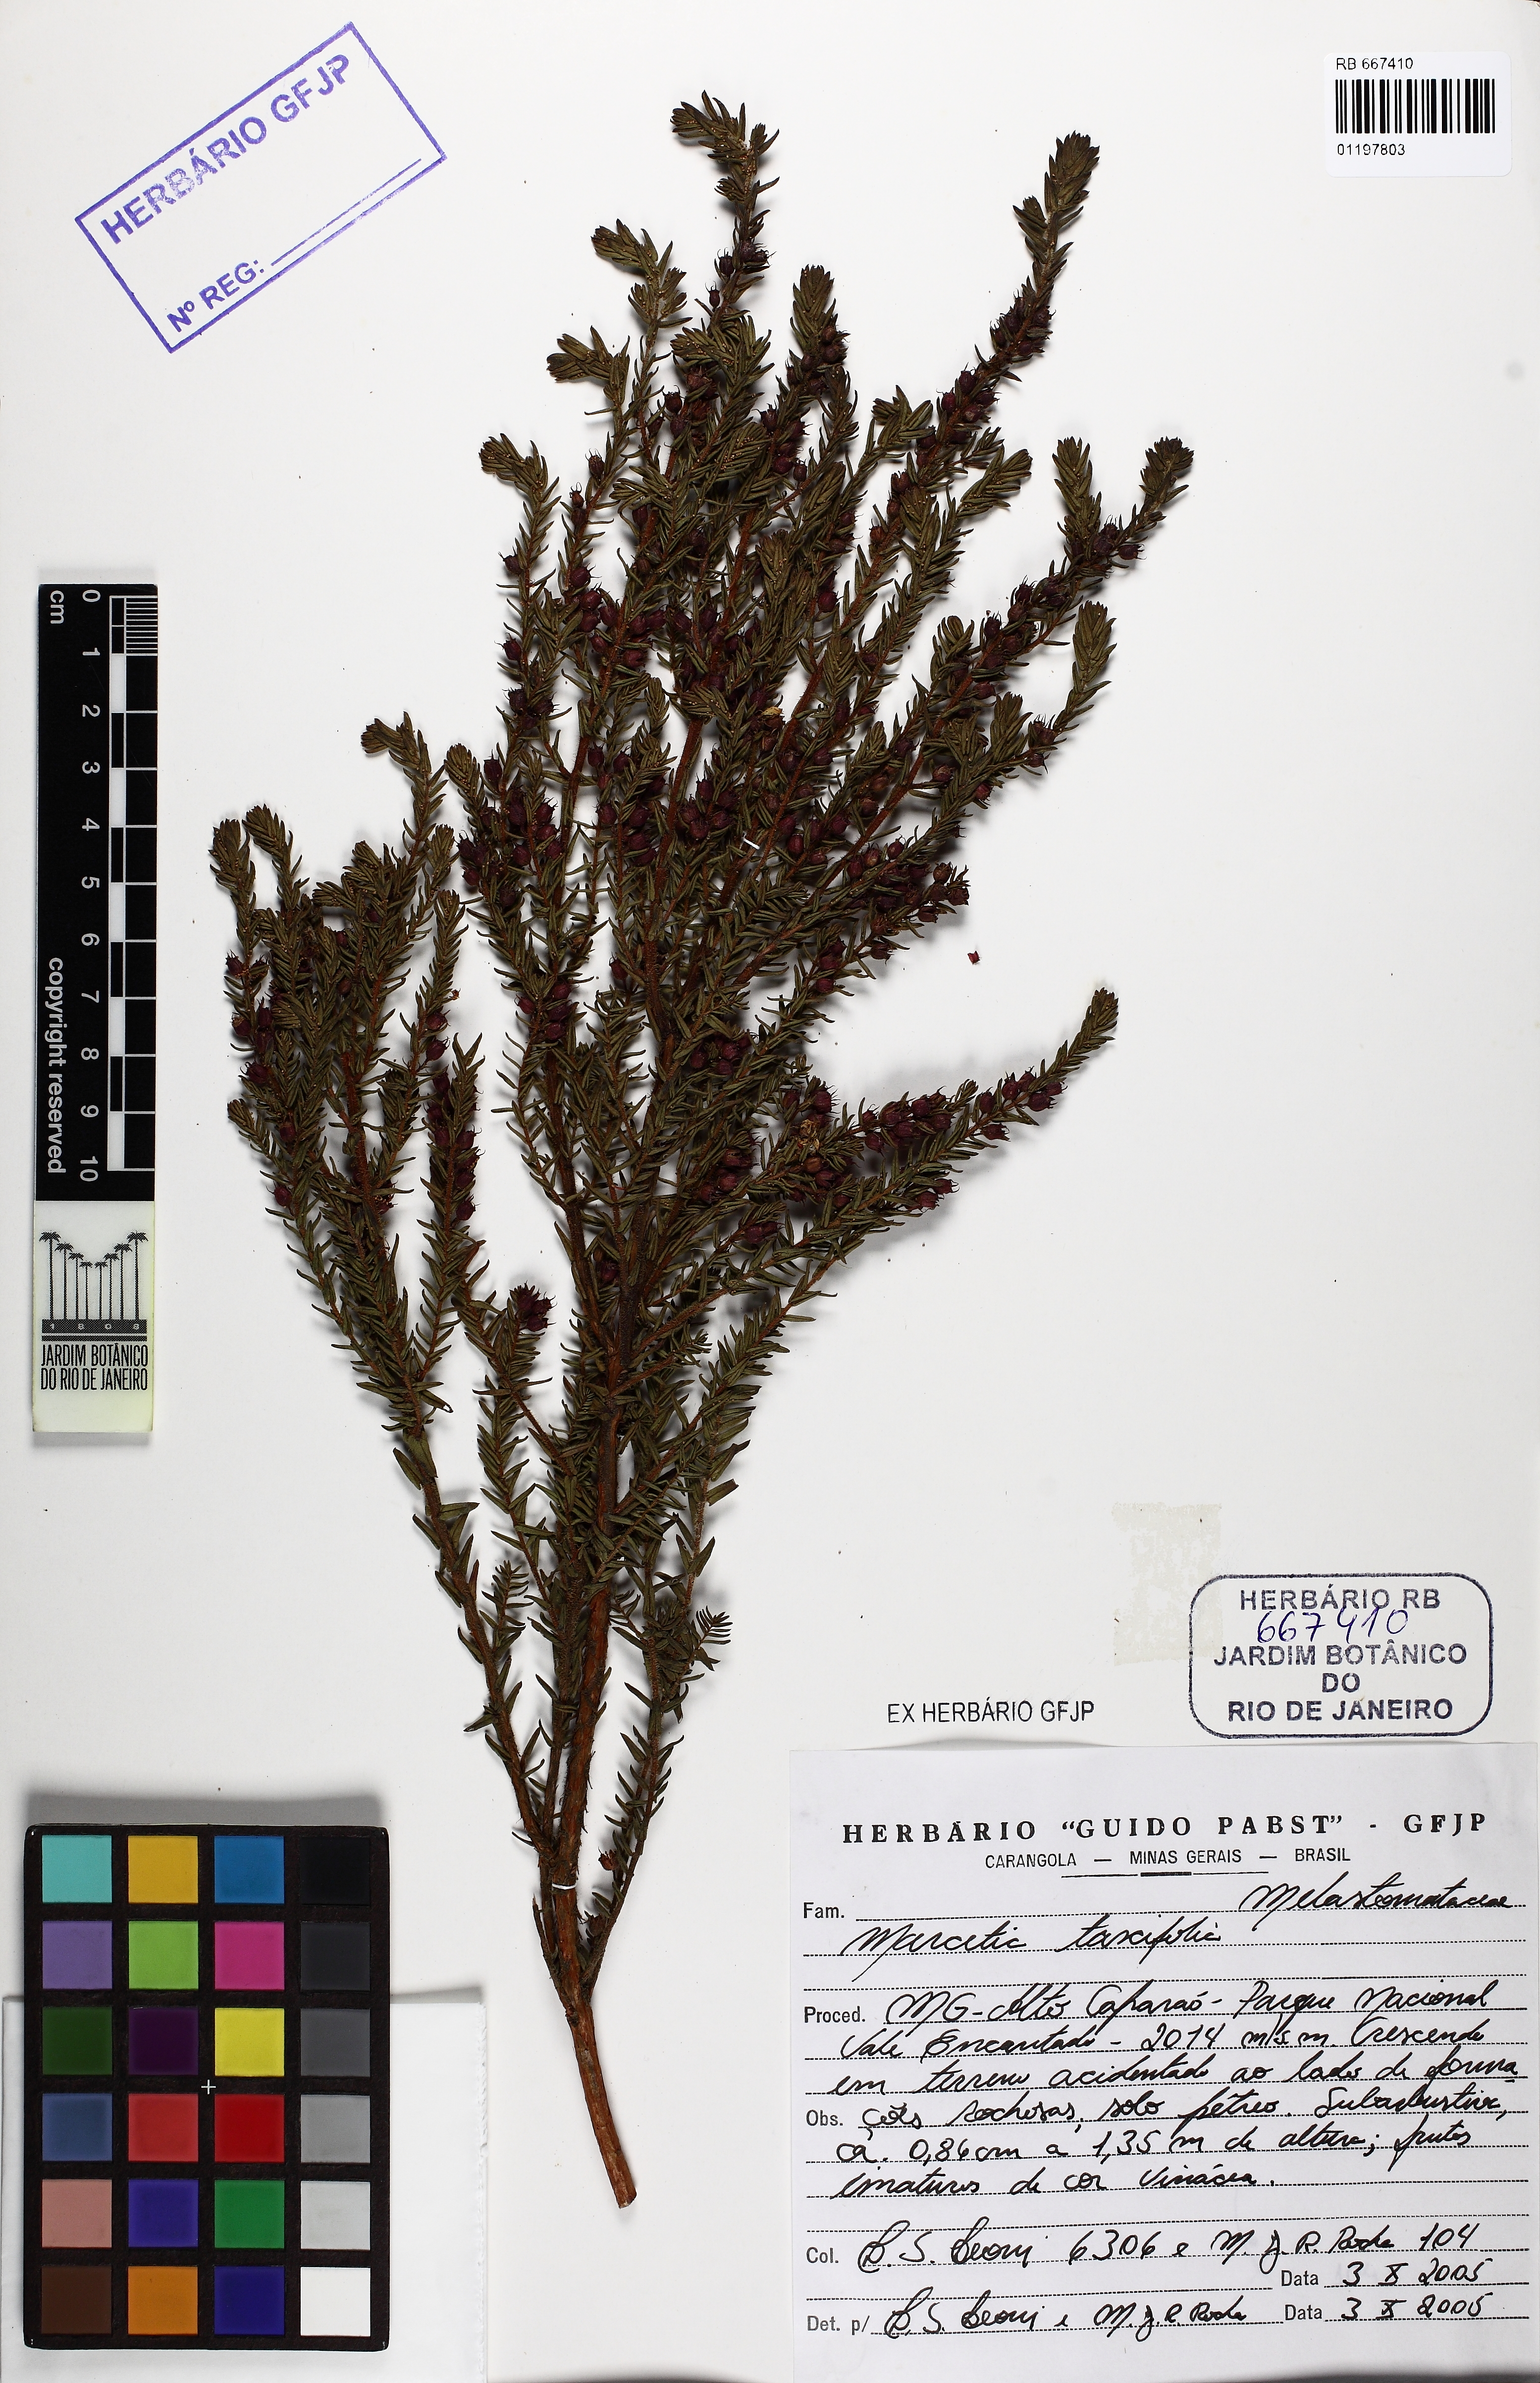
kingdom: Plantae
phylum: Tracheophyta
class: Magnoliopsida
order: Myrtales
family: Melastomataceae
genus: Marcetia
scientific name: Marcetia taxifolia
